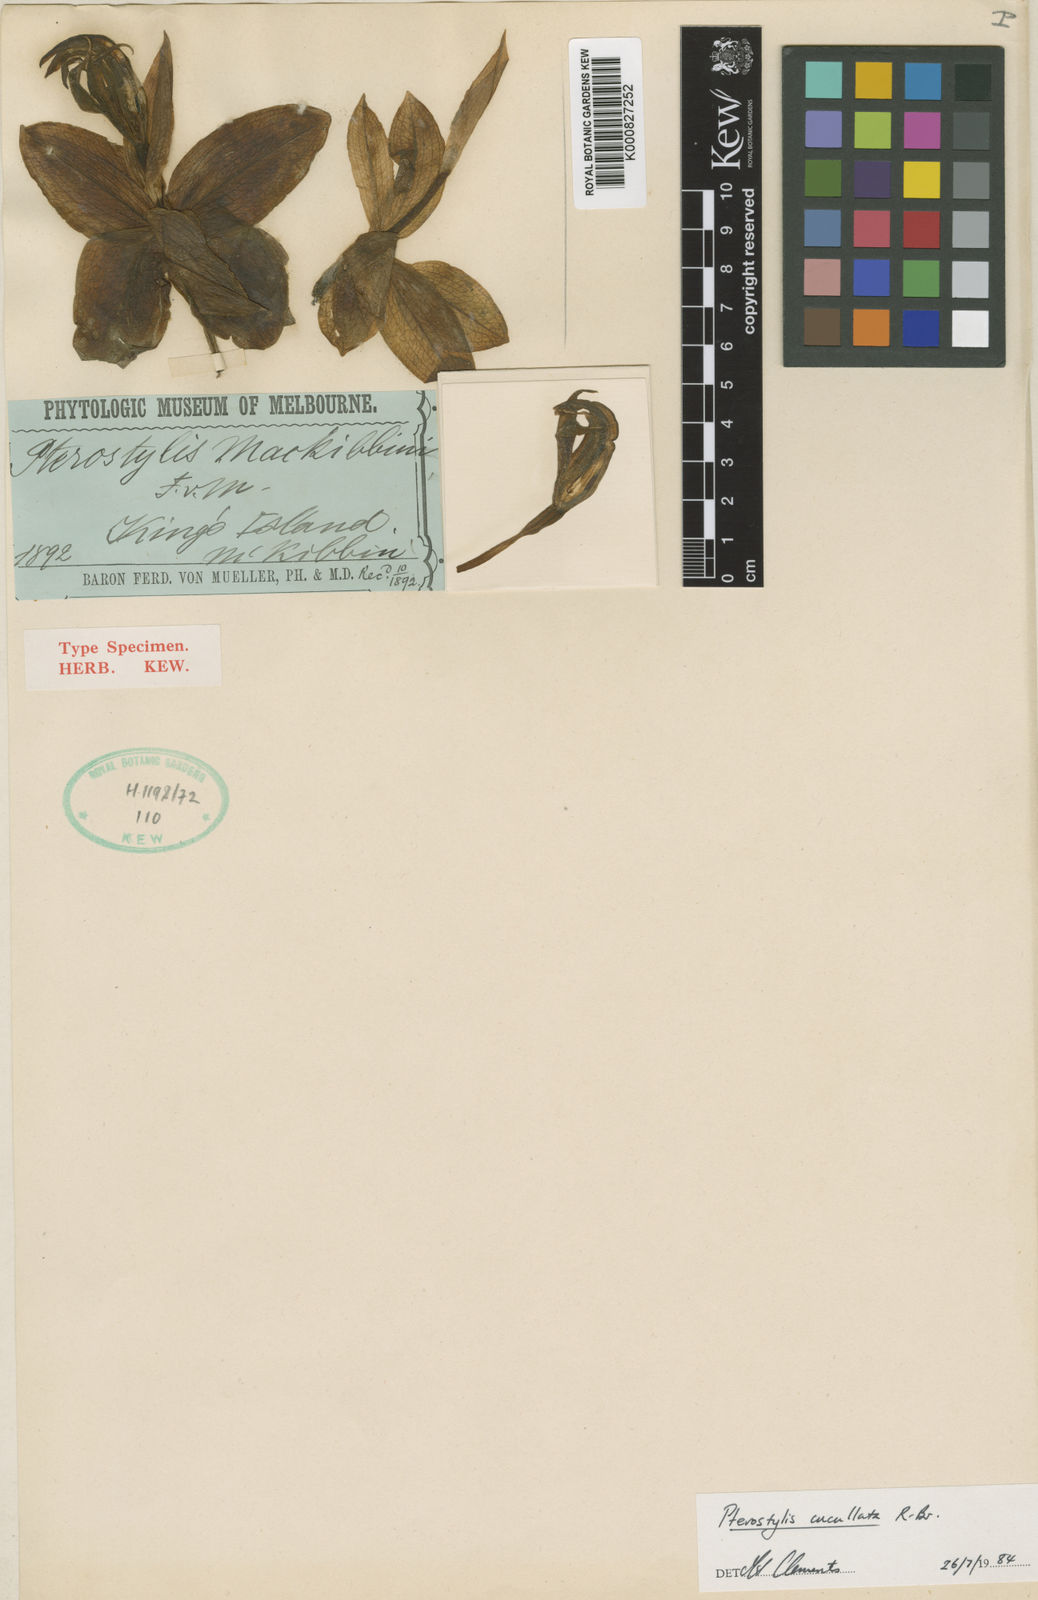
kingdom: Plantae
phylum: Tracheophyta
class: Liliopsida
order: Asparagales
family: Orchidaceae
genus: Pterostylis
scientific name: Pterostylis cucullata
